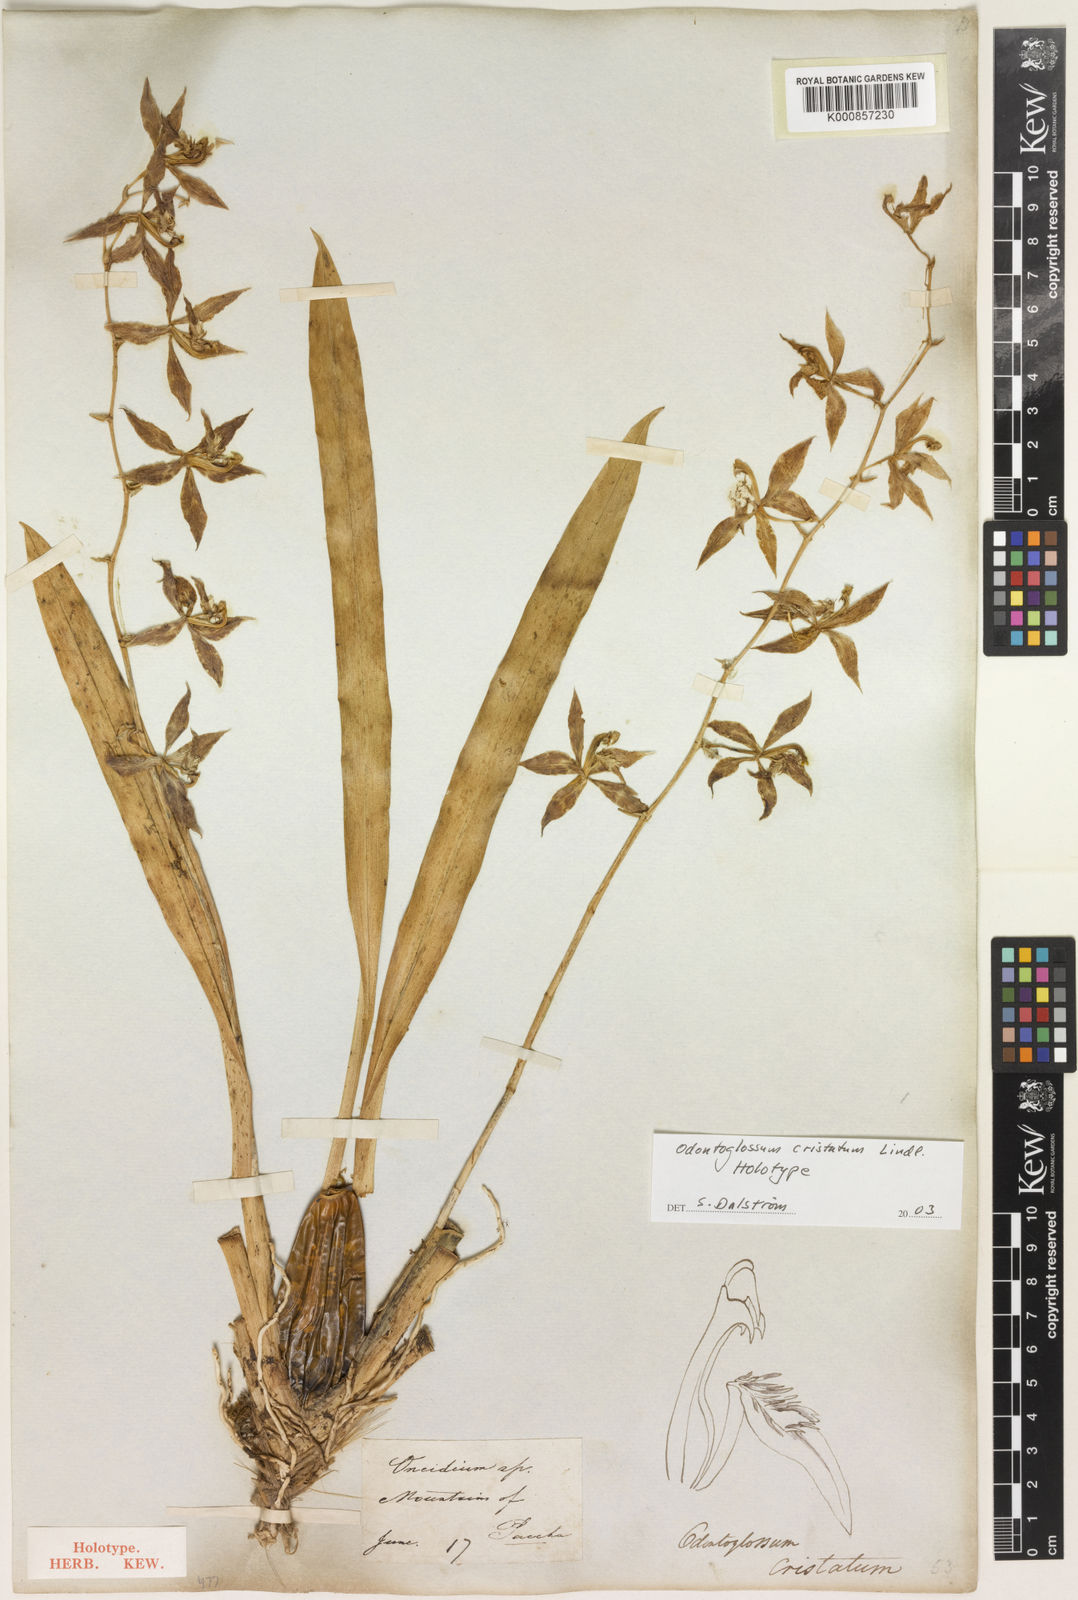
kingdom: Plantae
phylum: Tracheophyta
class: Liliopsida
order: Asparagales
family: Orchidaceae
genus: Oncidium
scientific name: Oncidium cristatum
